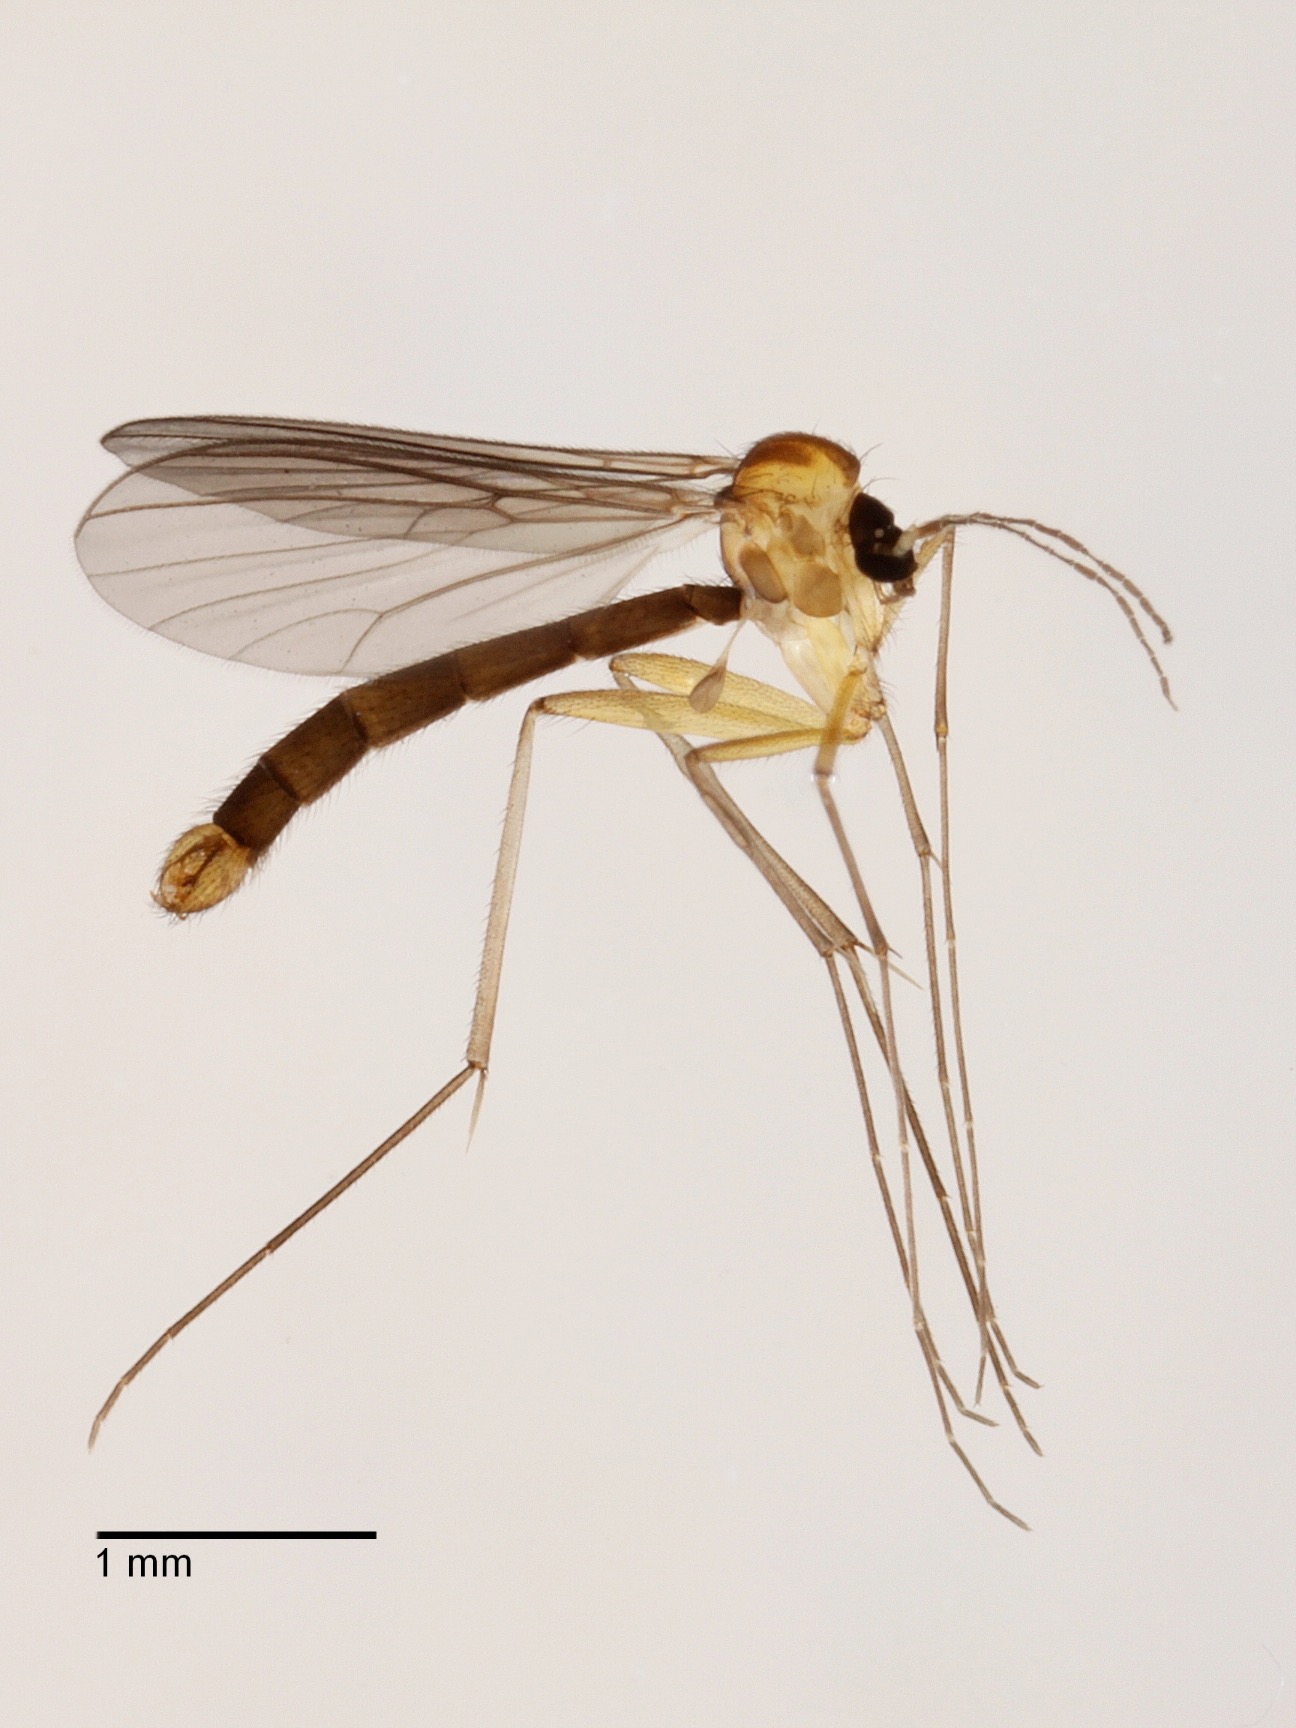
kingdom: Animalia
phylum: Arthropoda
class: Insecta
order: Diptera
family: Mycetophilidae
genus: Coelophthinia
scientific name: Coelophthinia thoracica
